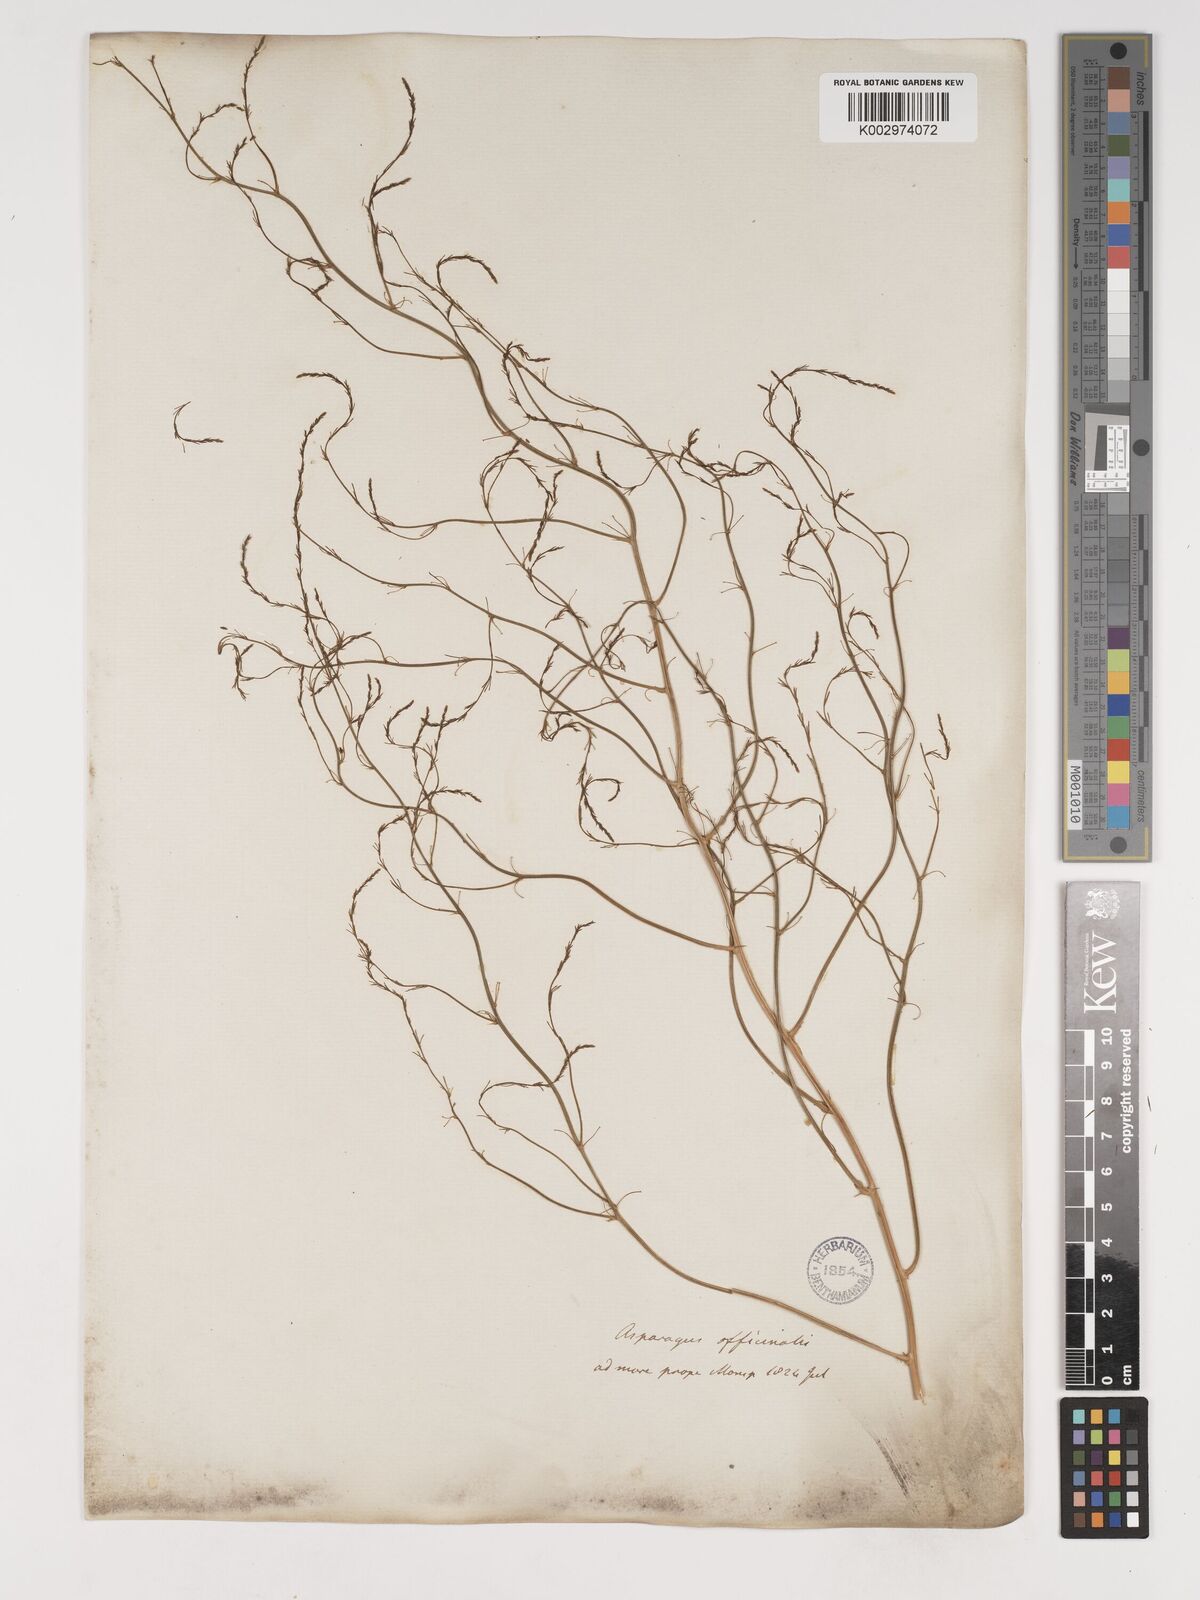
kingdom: Plantae
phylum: Tracheophyta
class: Liliopsida
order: Asparagales
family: Asparagaceae
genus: Asparagus
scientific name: Asparagus officinalis
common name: Garden asparagus
